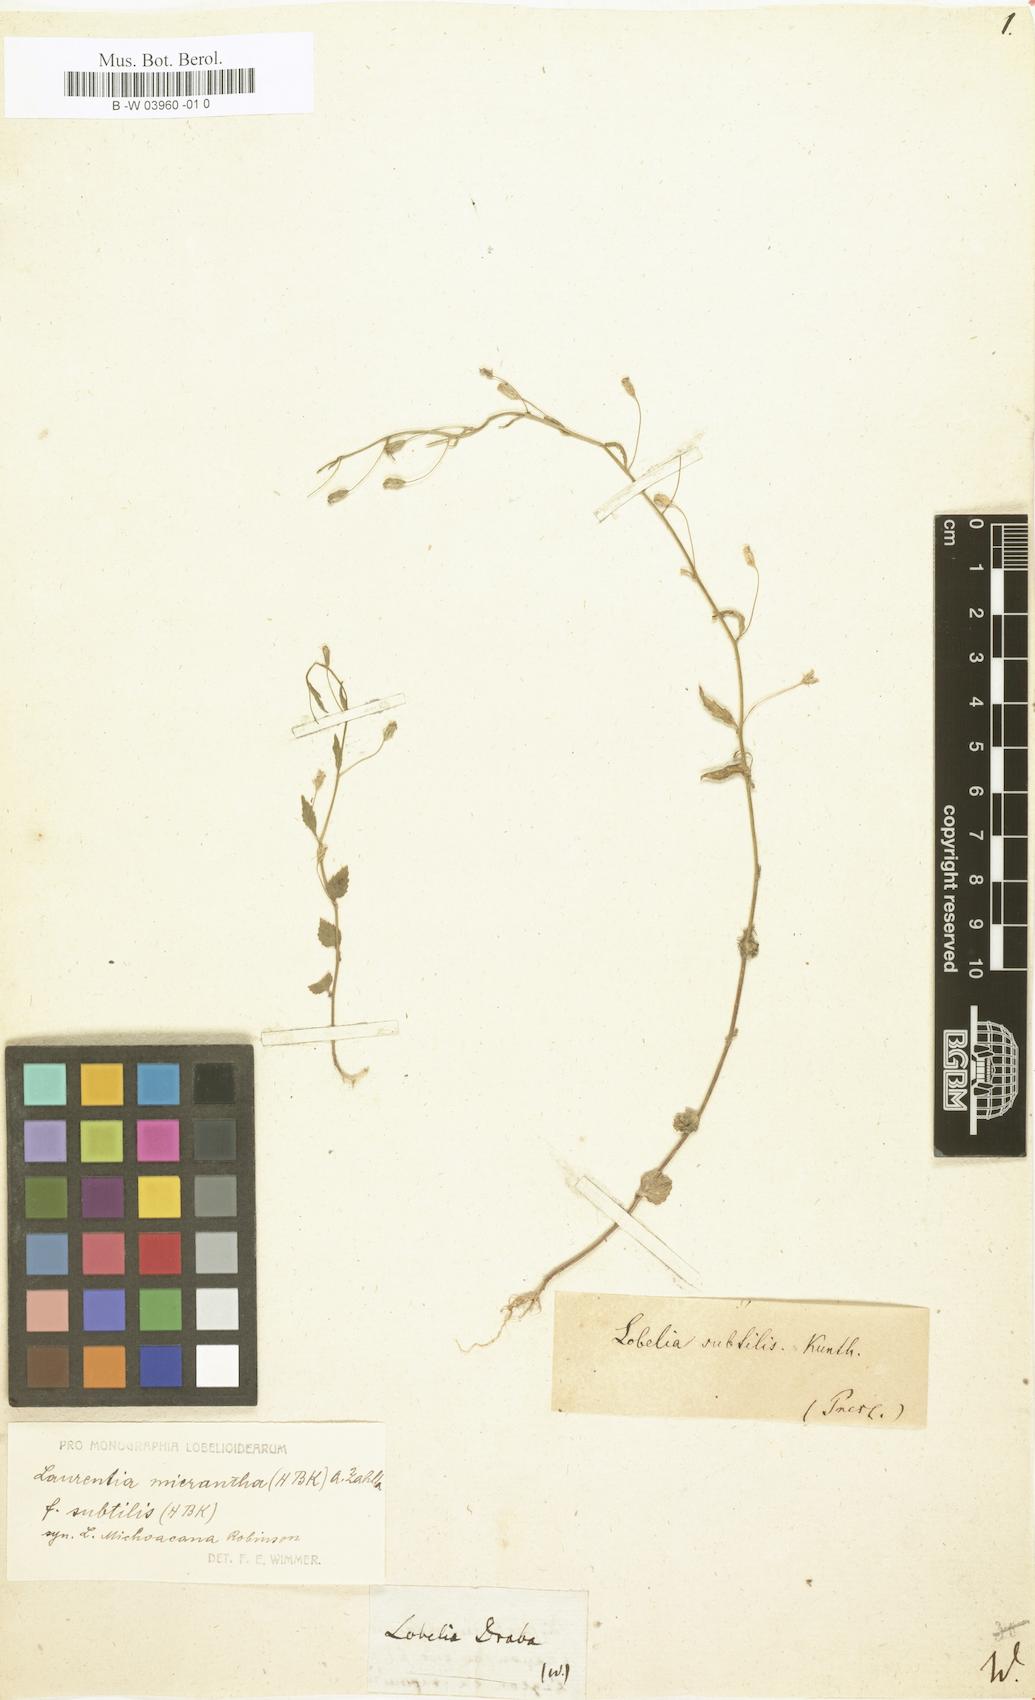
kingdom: Plantae
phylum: Tracheophyta
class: Magnoliopsida
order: Asterales
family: Campanulaceae
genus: Diastatea
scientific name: Diastatea micrantha
